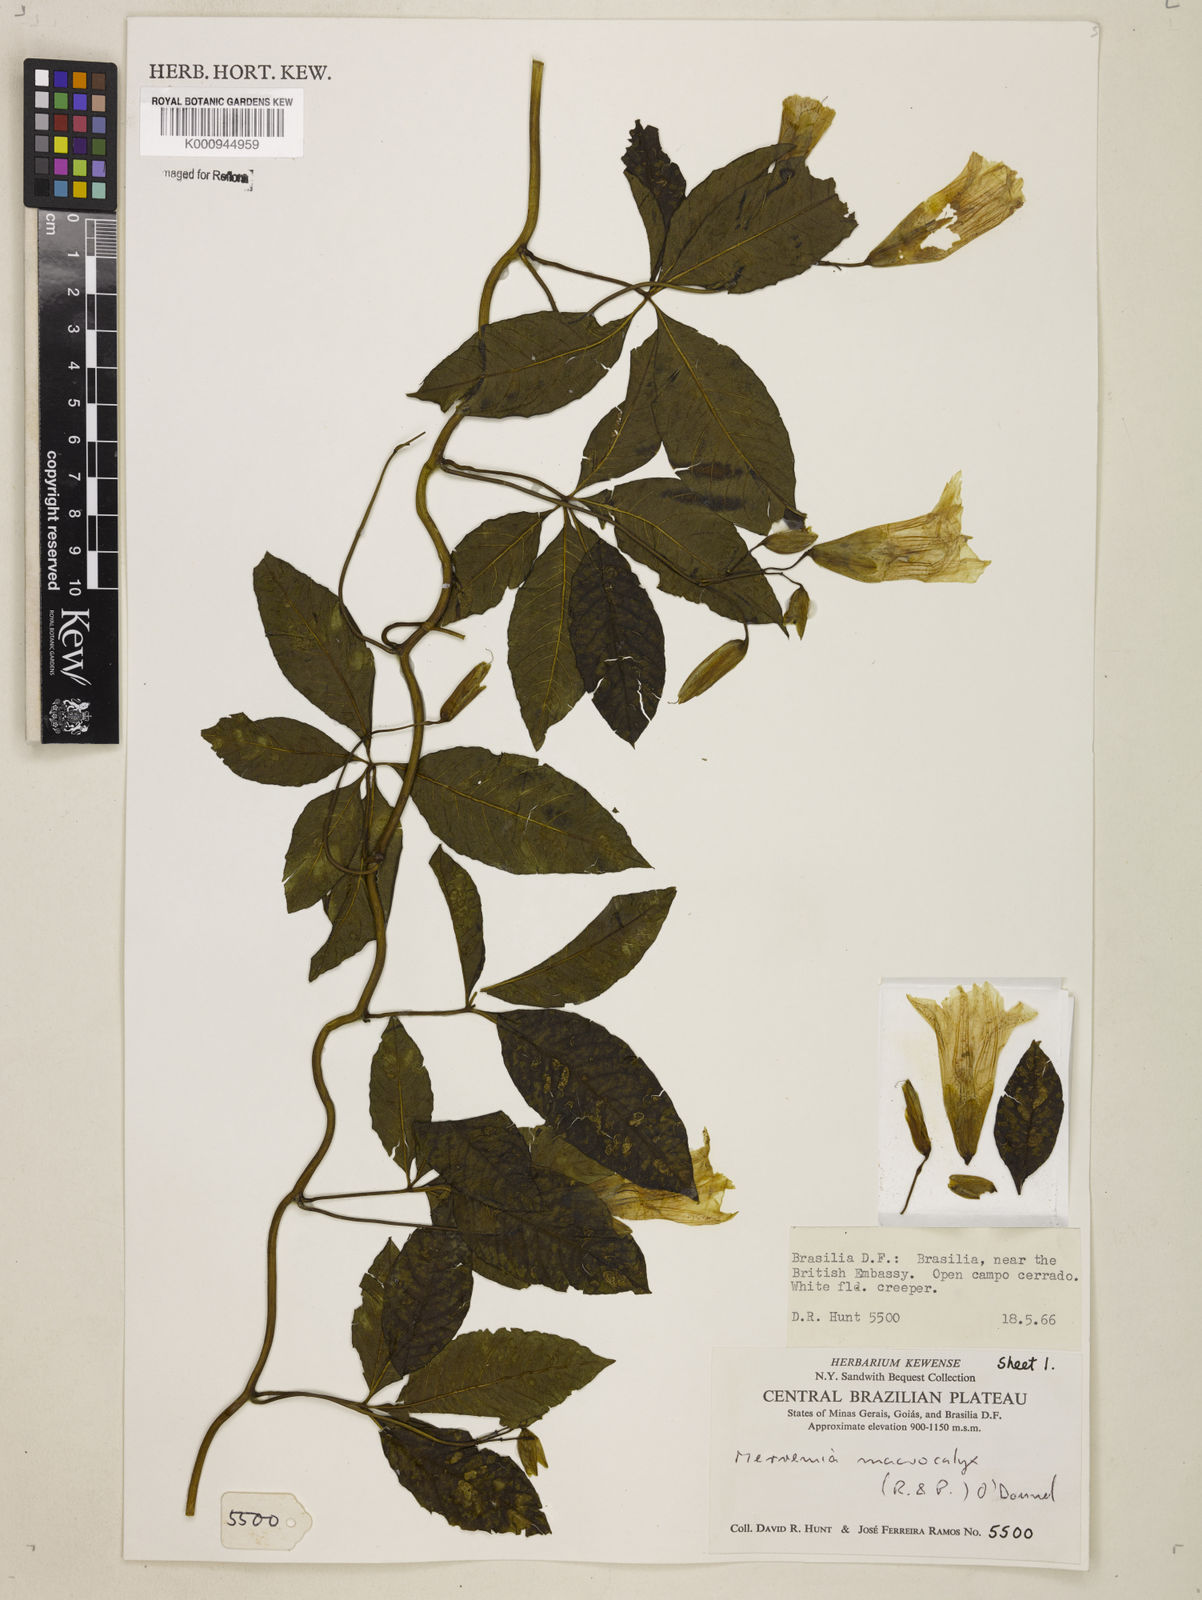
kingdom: Plantae
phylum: Tracheophyta
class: Magnoliopsida
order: Solanales
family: Convolvulaceae
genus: Distimake
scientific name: Distimake macrocalyx
